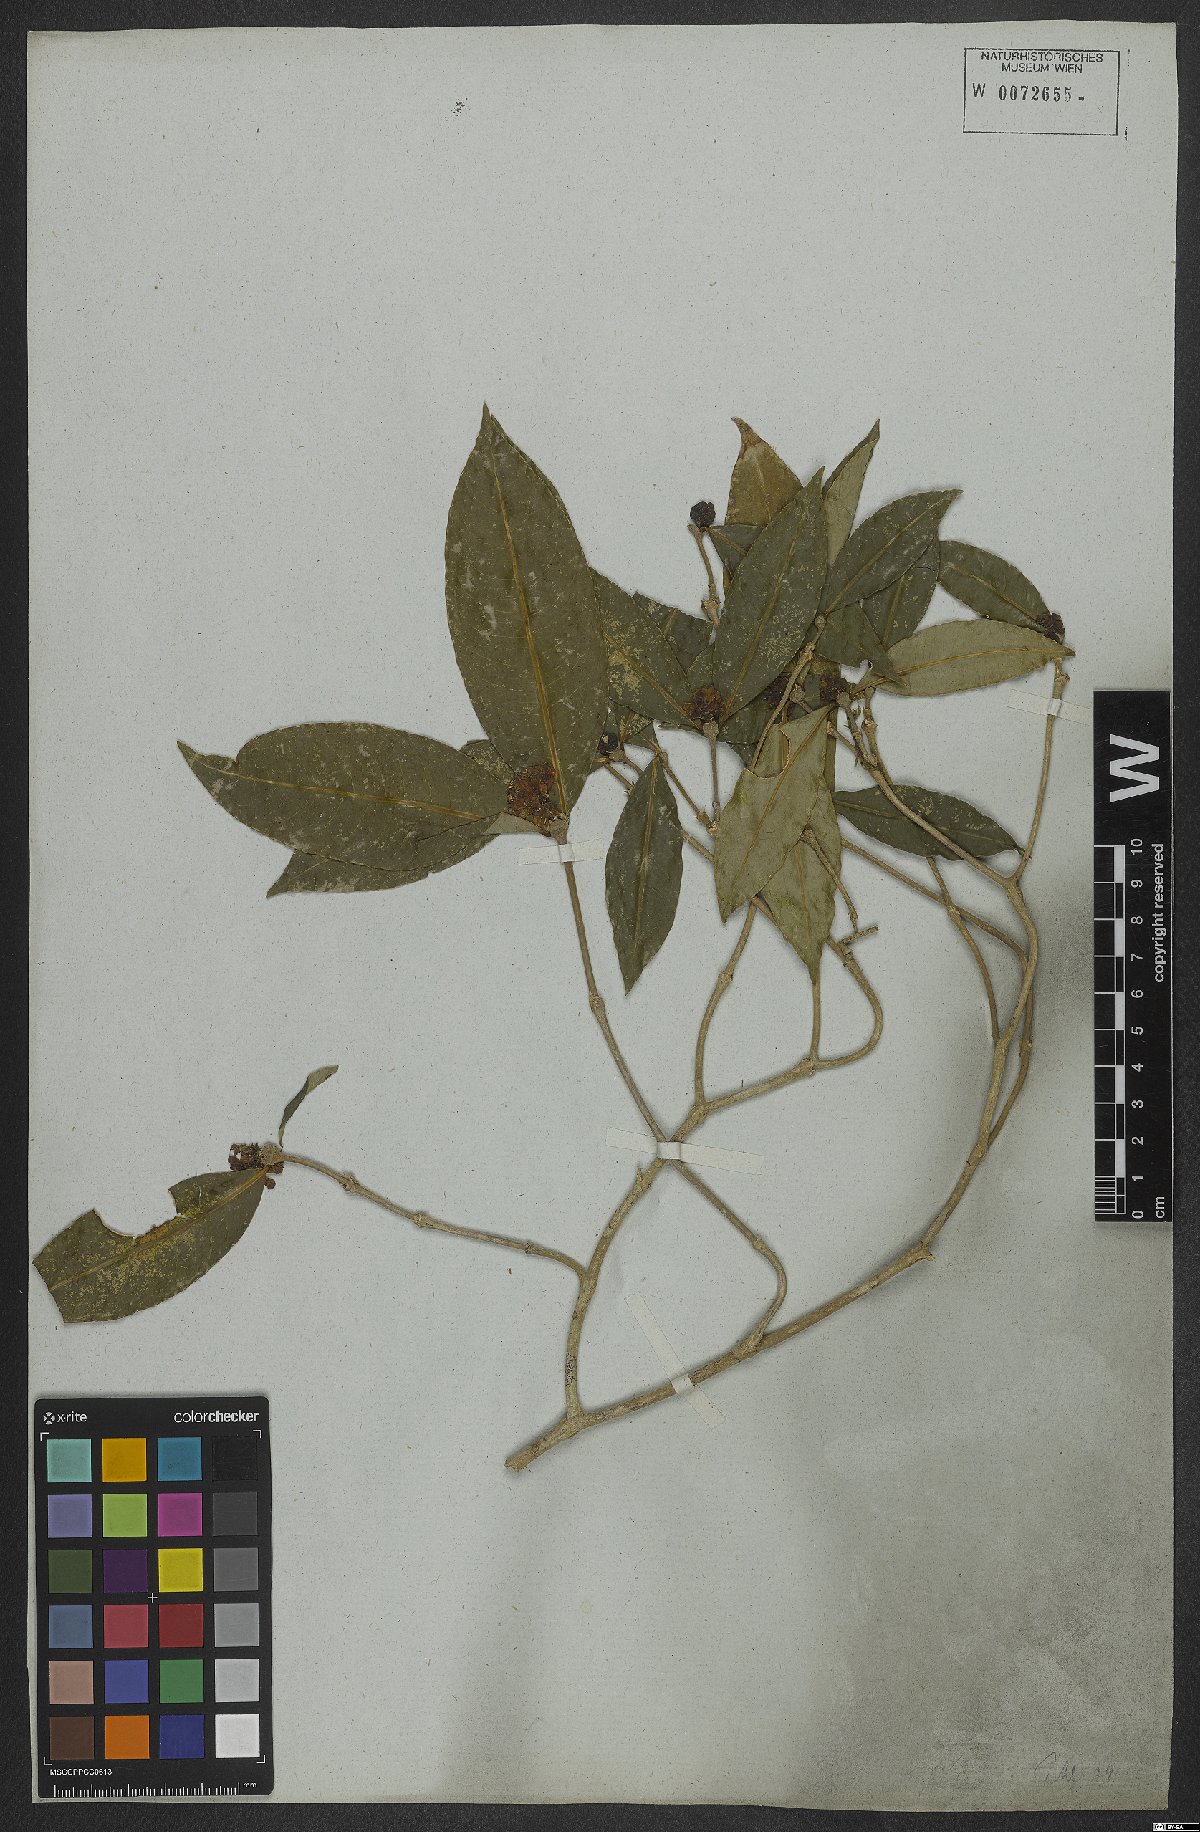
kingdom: Plantae
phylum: Tracheophyta
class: Magnoliopsida
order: Gentianales
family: Rubiaceae
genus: Rudgea
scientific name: Rudgea sessilis
